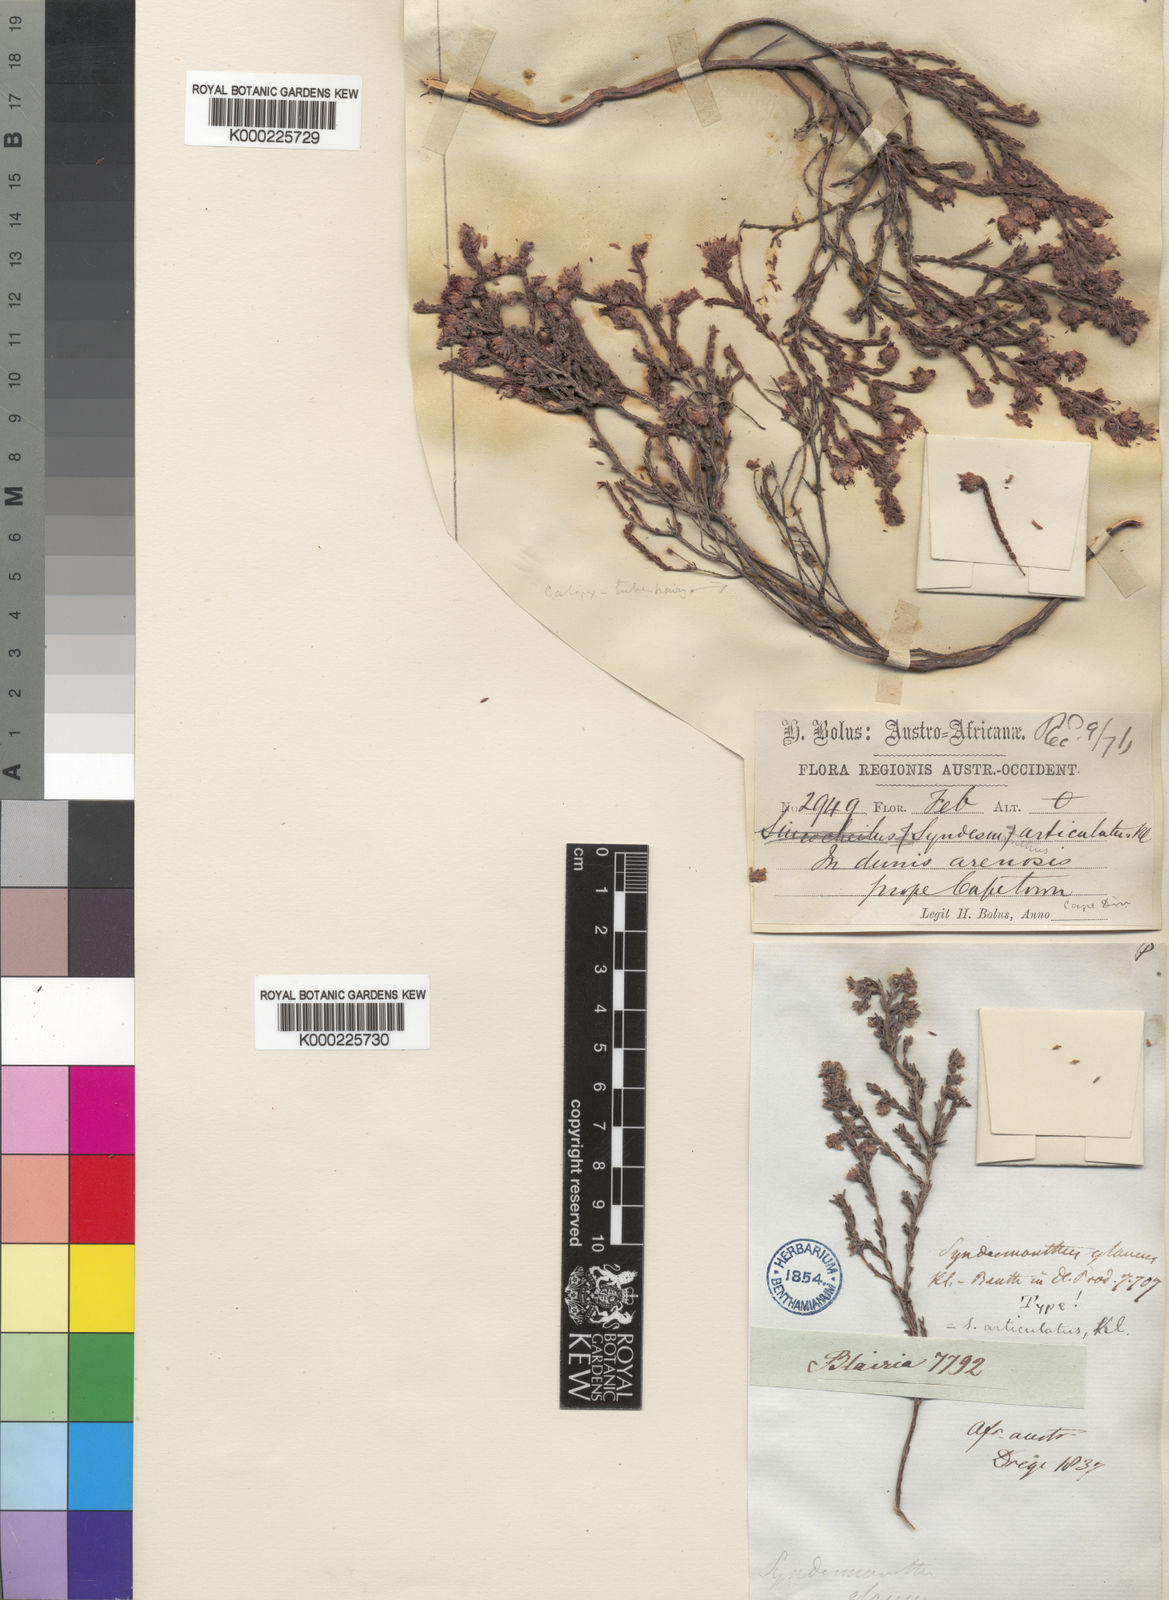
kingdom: Plantae
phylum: Tracheophyta
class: Magnoliopsida
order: Ericales
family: Ericaceae
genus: Erica
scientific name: Erica similis
